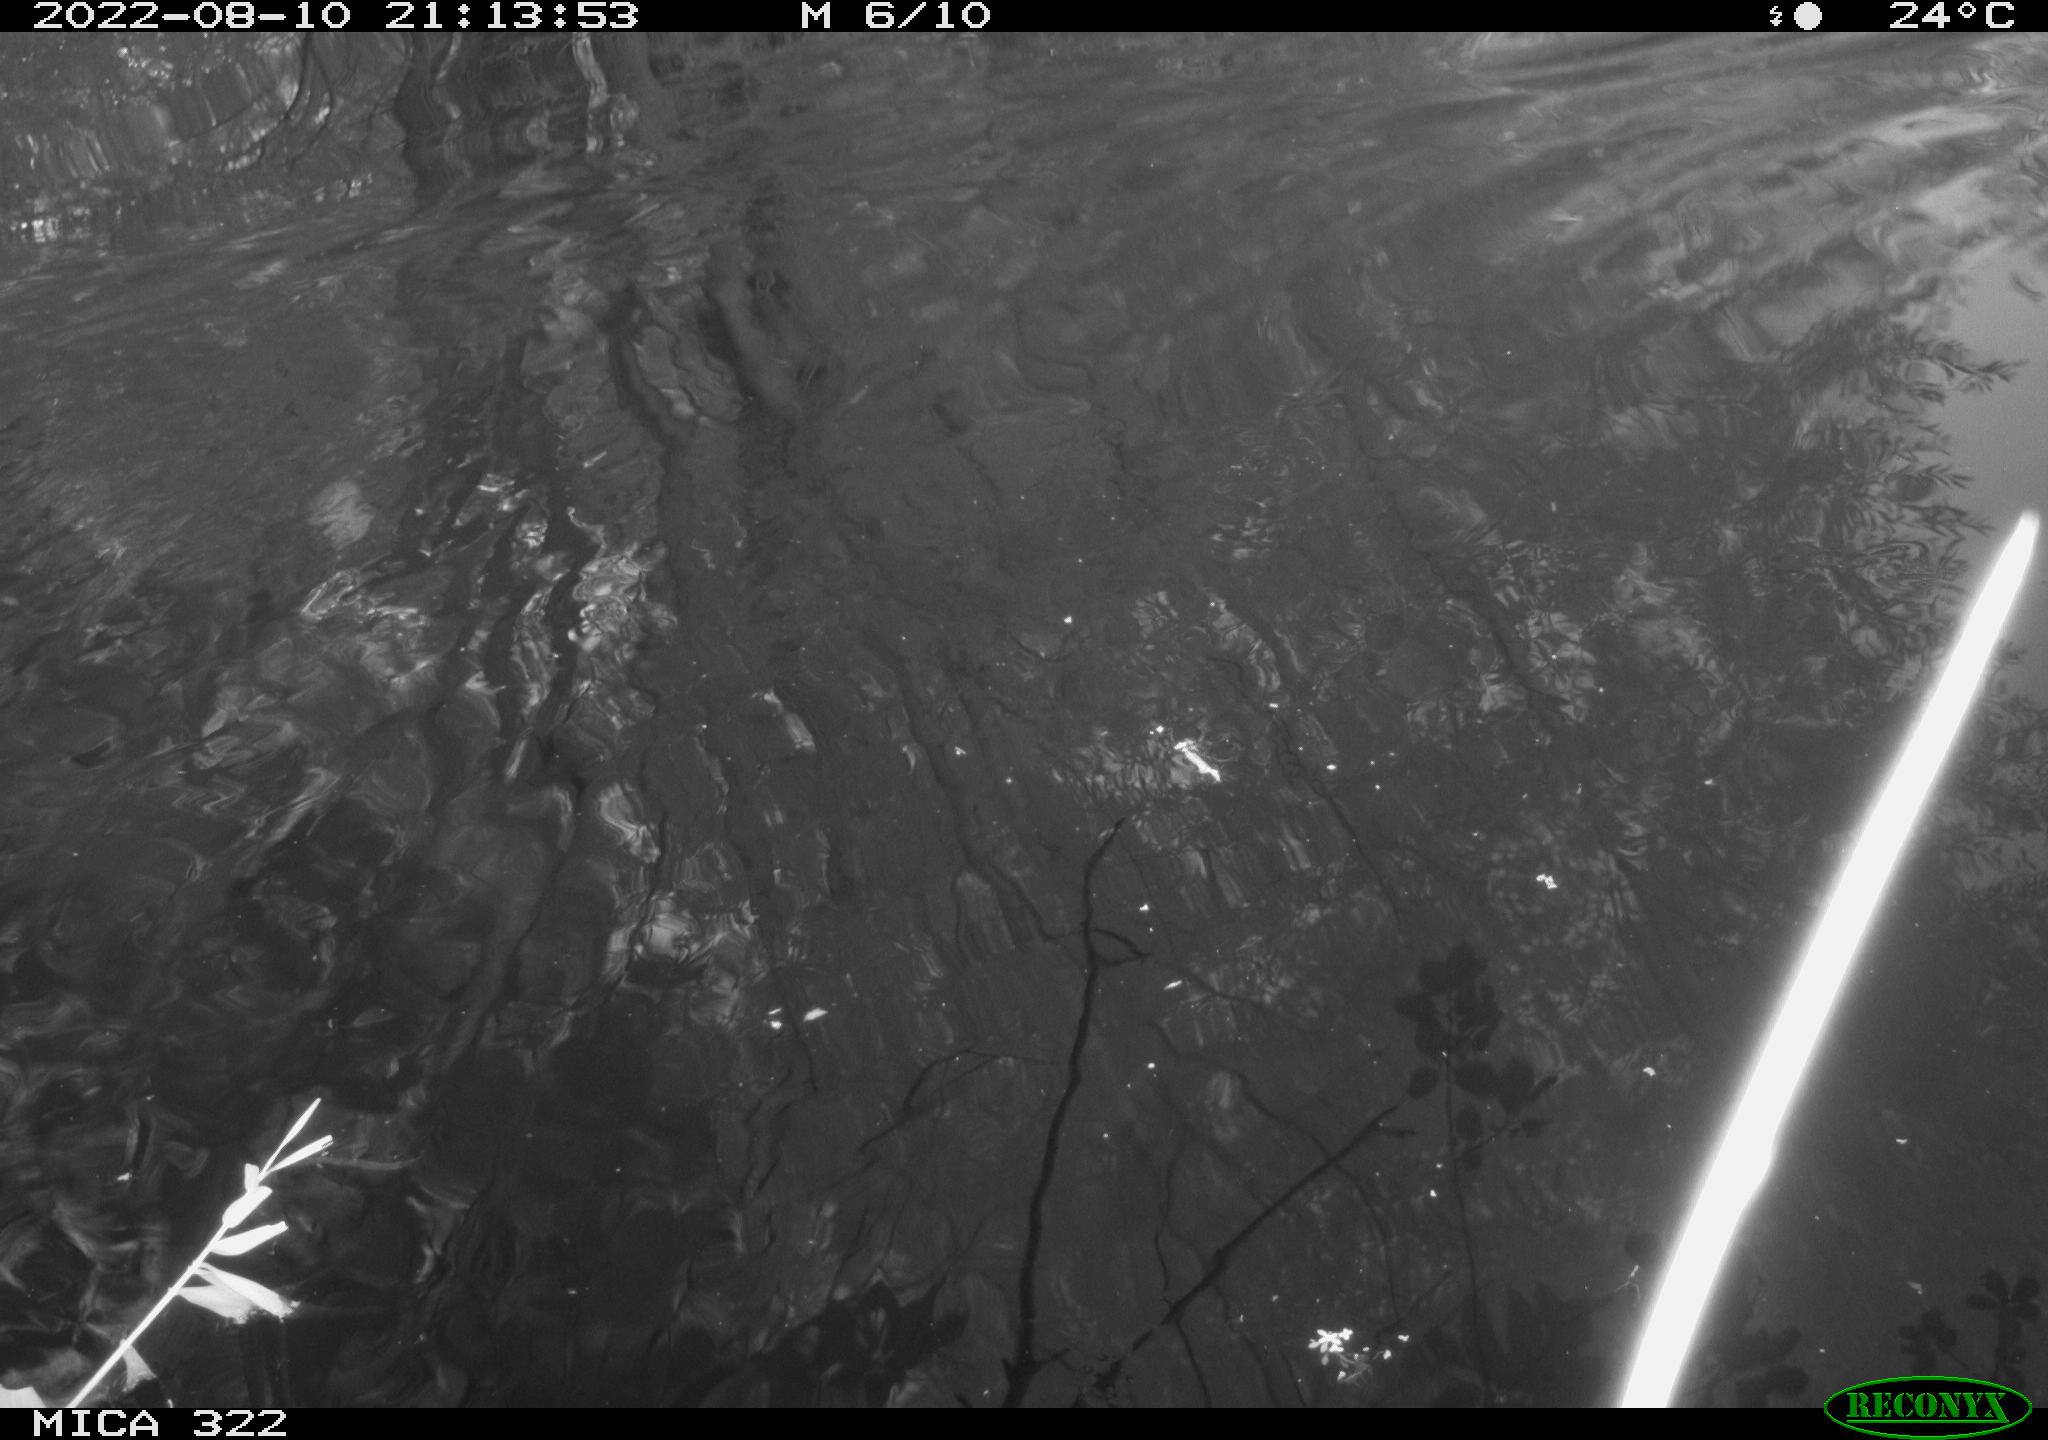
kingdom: Animalia
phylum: Chordata
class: Aves
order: Gruiformes
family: Rallidae
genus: Gallinula
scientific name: Gallinula chloropus
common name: Common moorhen
